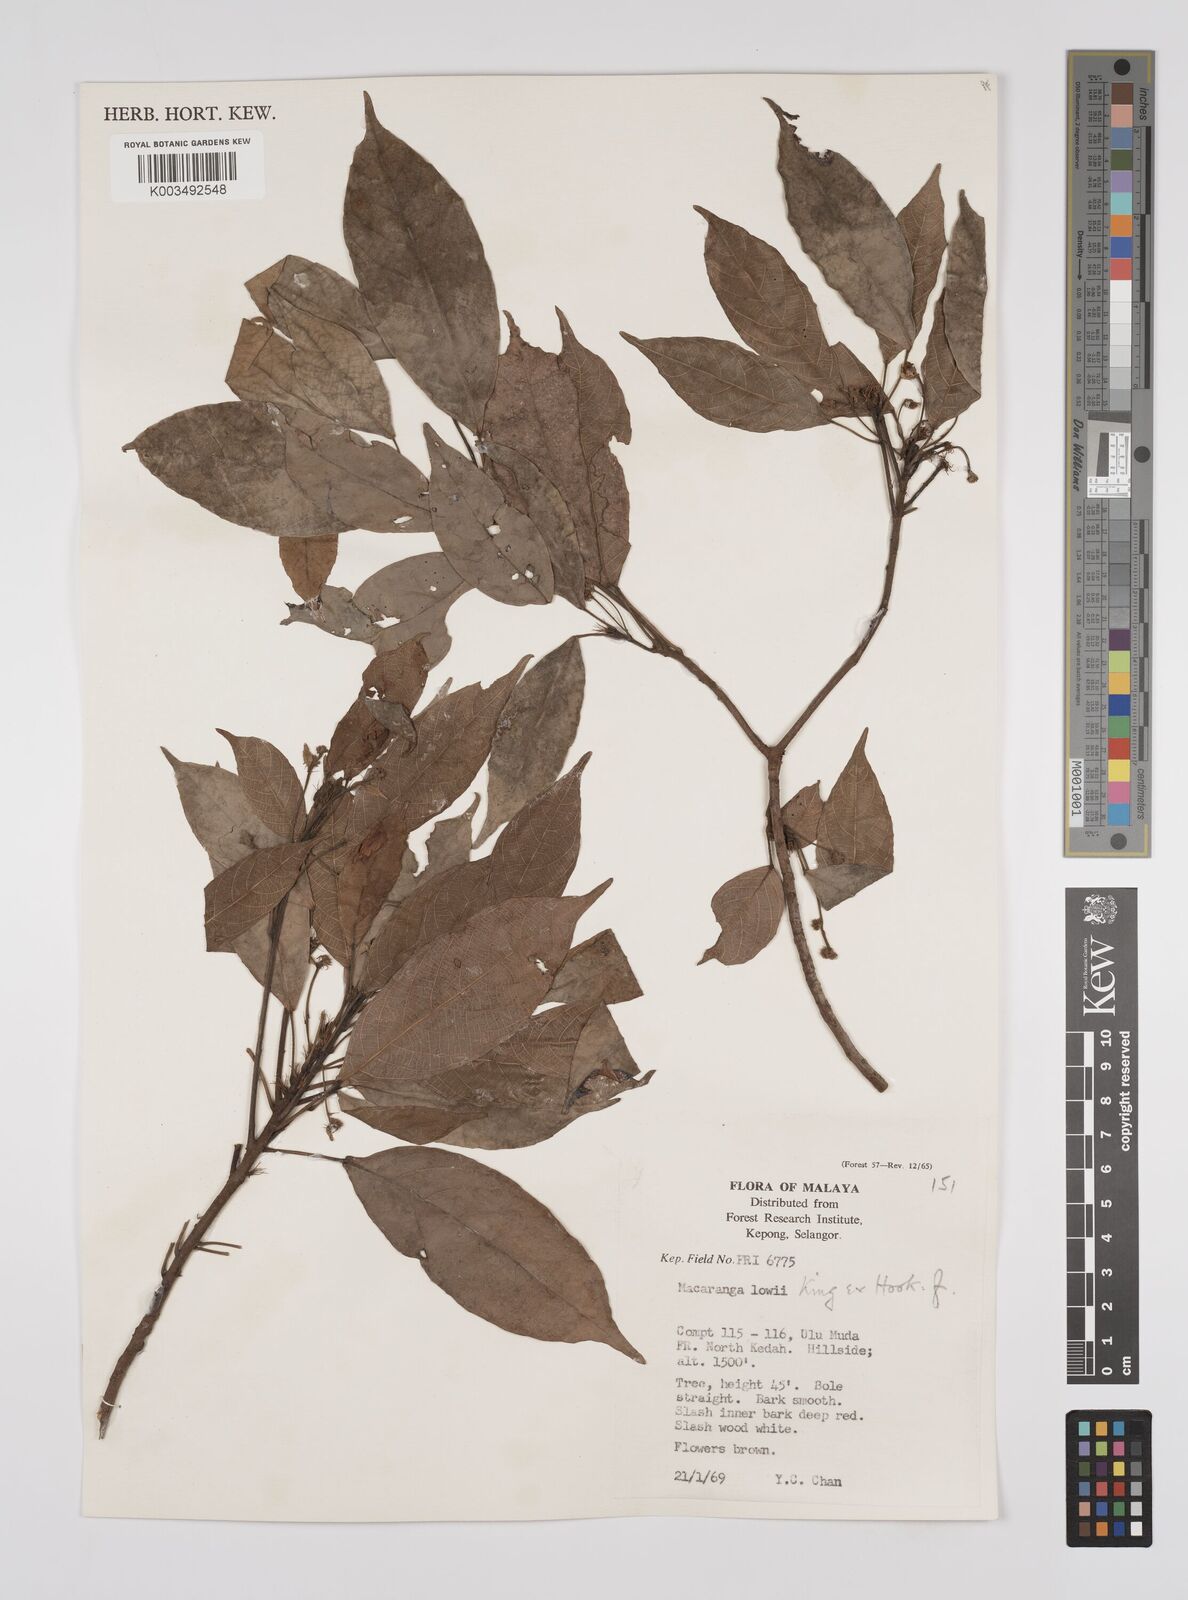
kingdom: Plantae
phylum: Tracheophyta
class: Magnoliopsida
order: Malpighiales
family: Euphorbiaceae
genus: Macaranga
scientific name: Macaranga lowii
